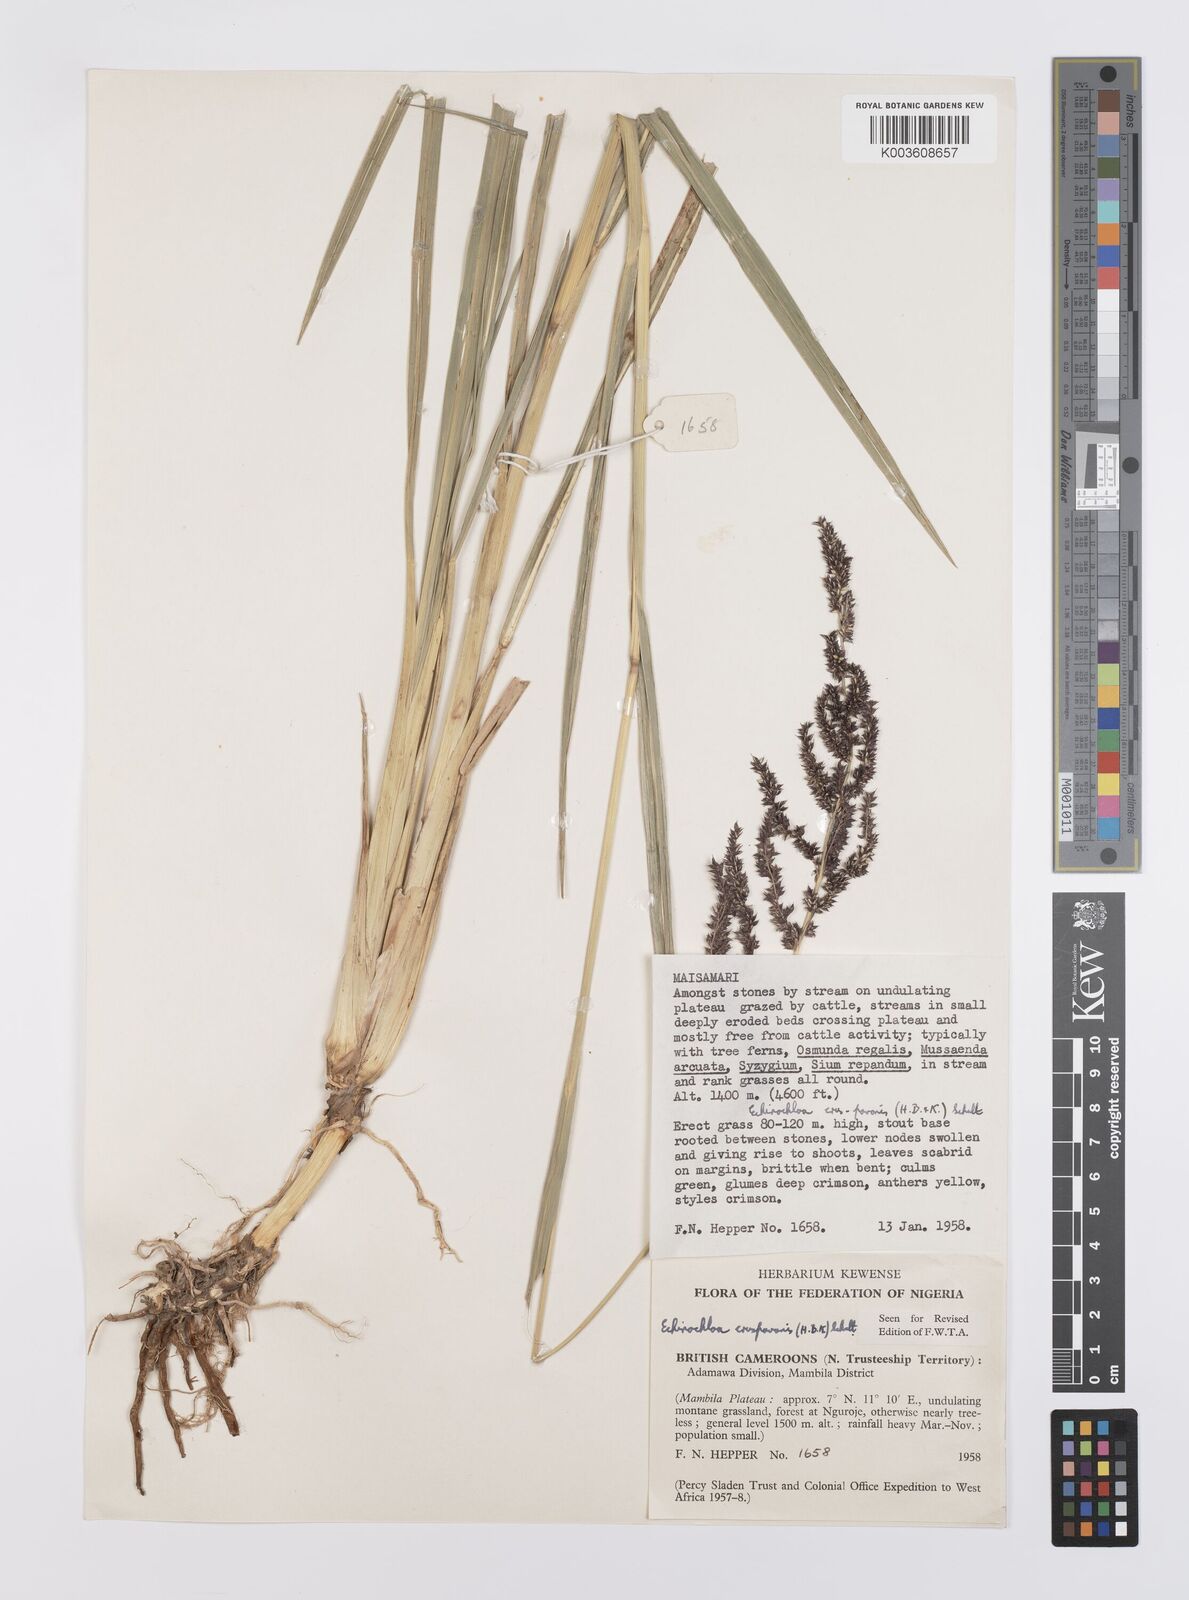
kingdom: Plantae
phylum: Tracheophyta
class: Liliopsida
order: Poales
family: Poaceae
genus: Echinochloa
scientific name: Echinochloa crus-pavonis
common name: Gulf cockspur grass
